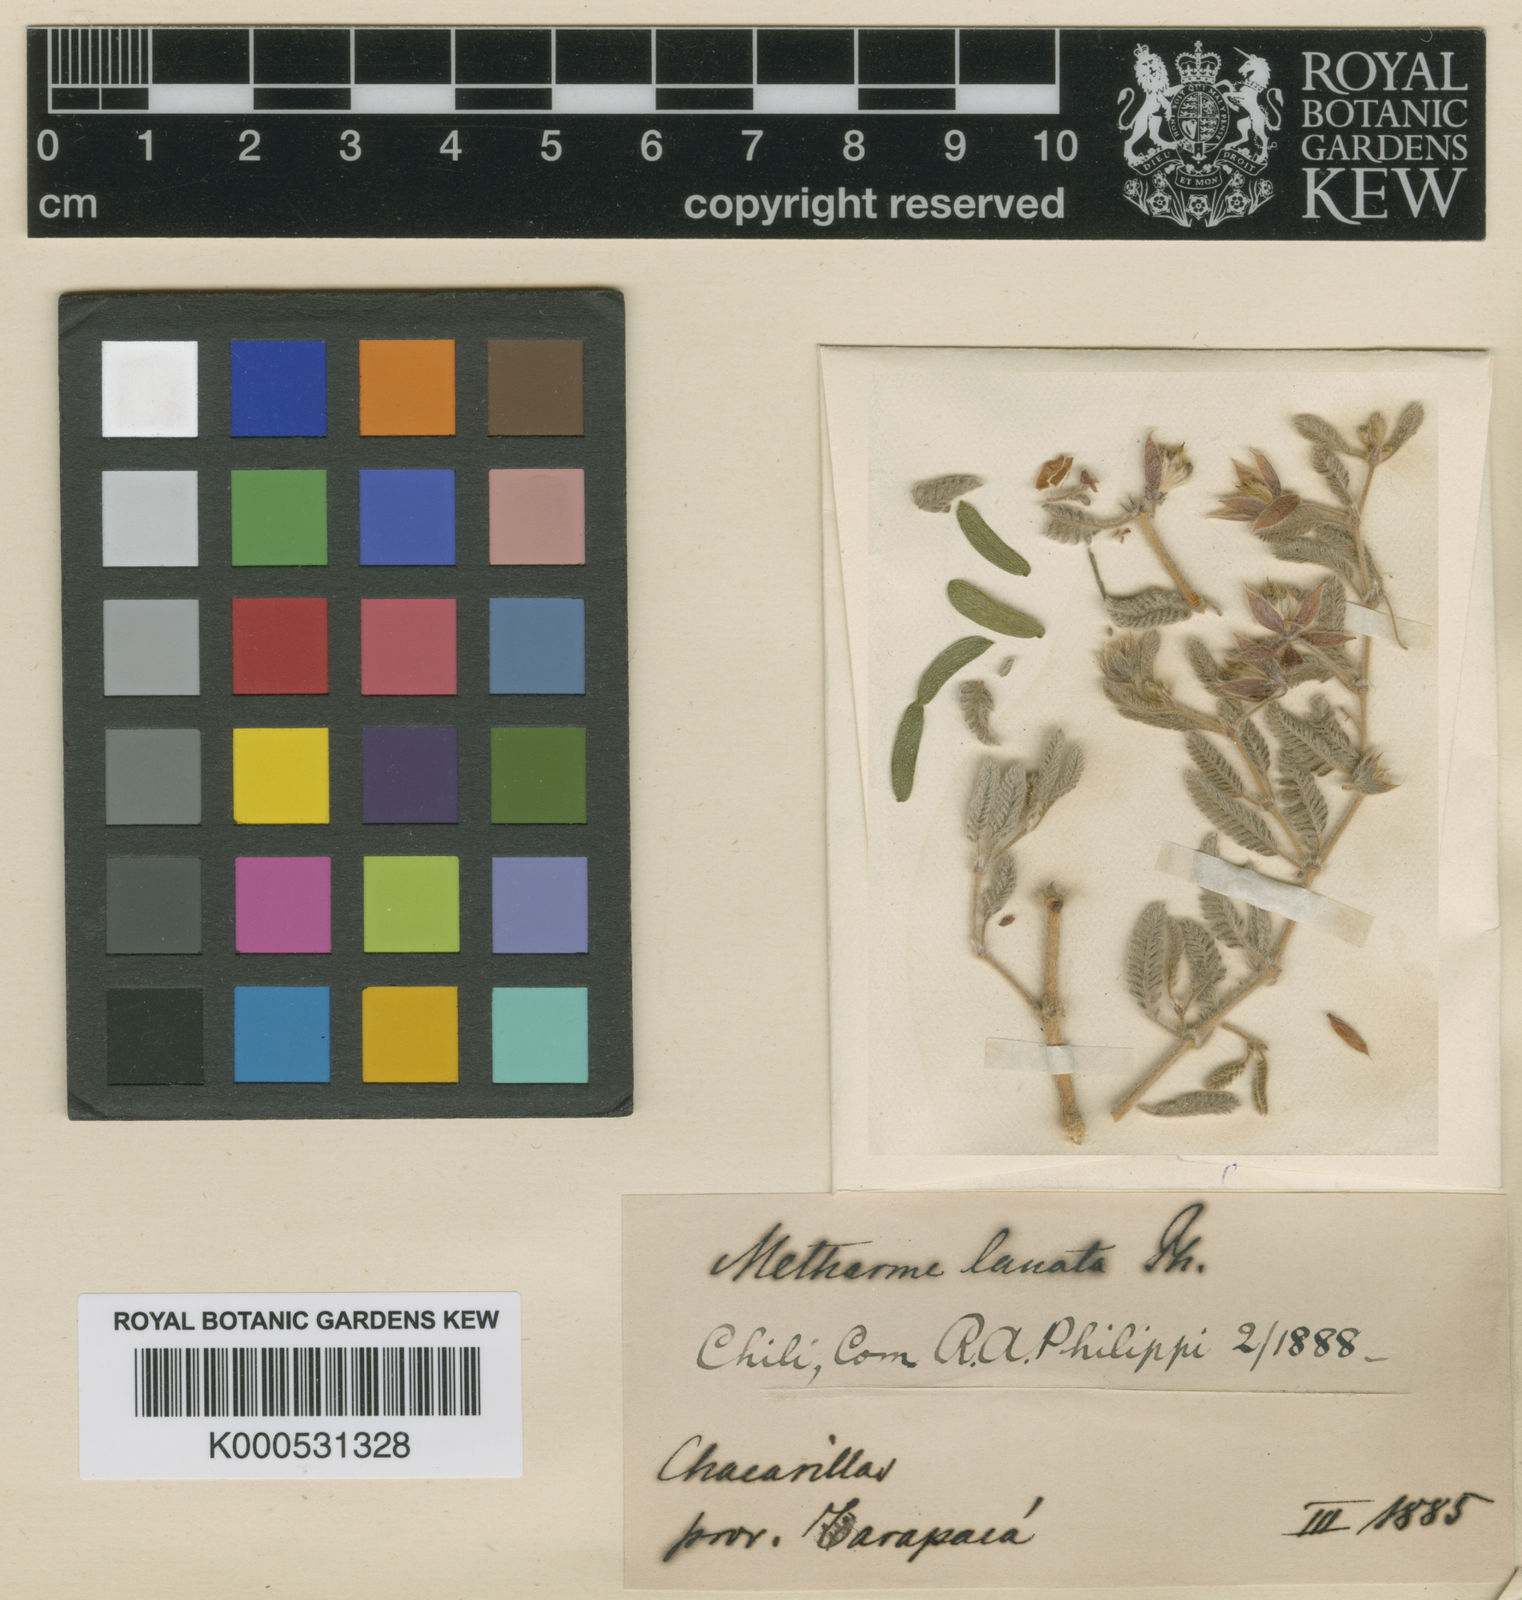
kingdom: Plantae
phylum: Tracheophyta
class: Magnoliopsida
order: Zygophyllales
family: Zygophyllaceae
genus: Metharme
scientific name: Metharme lanata
